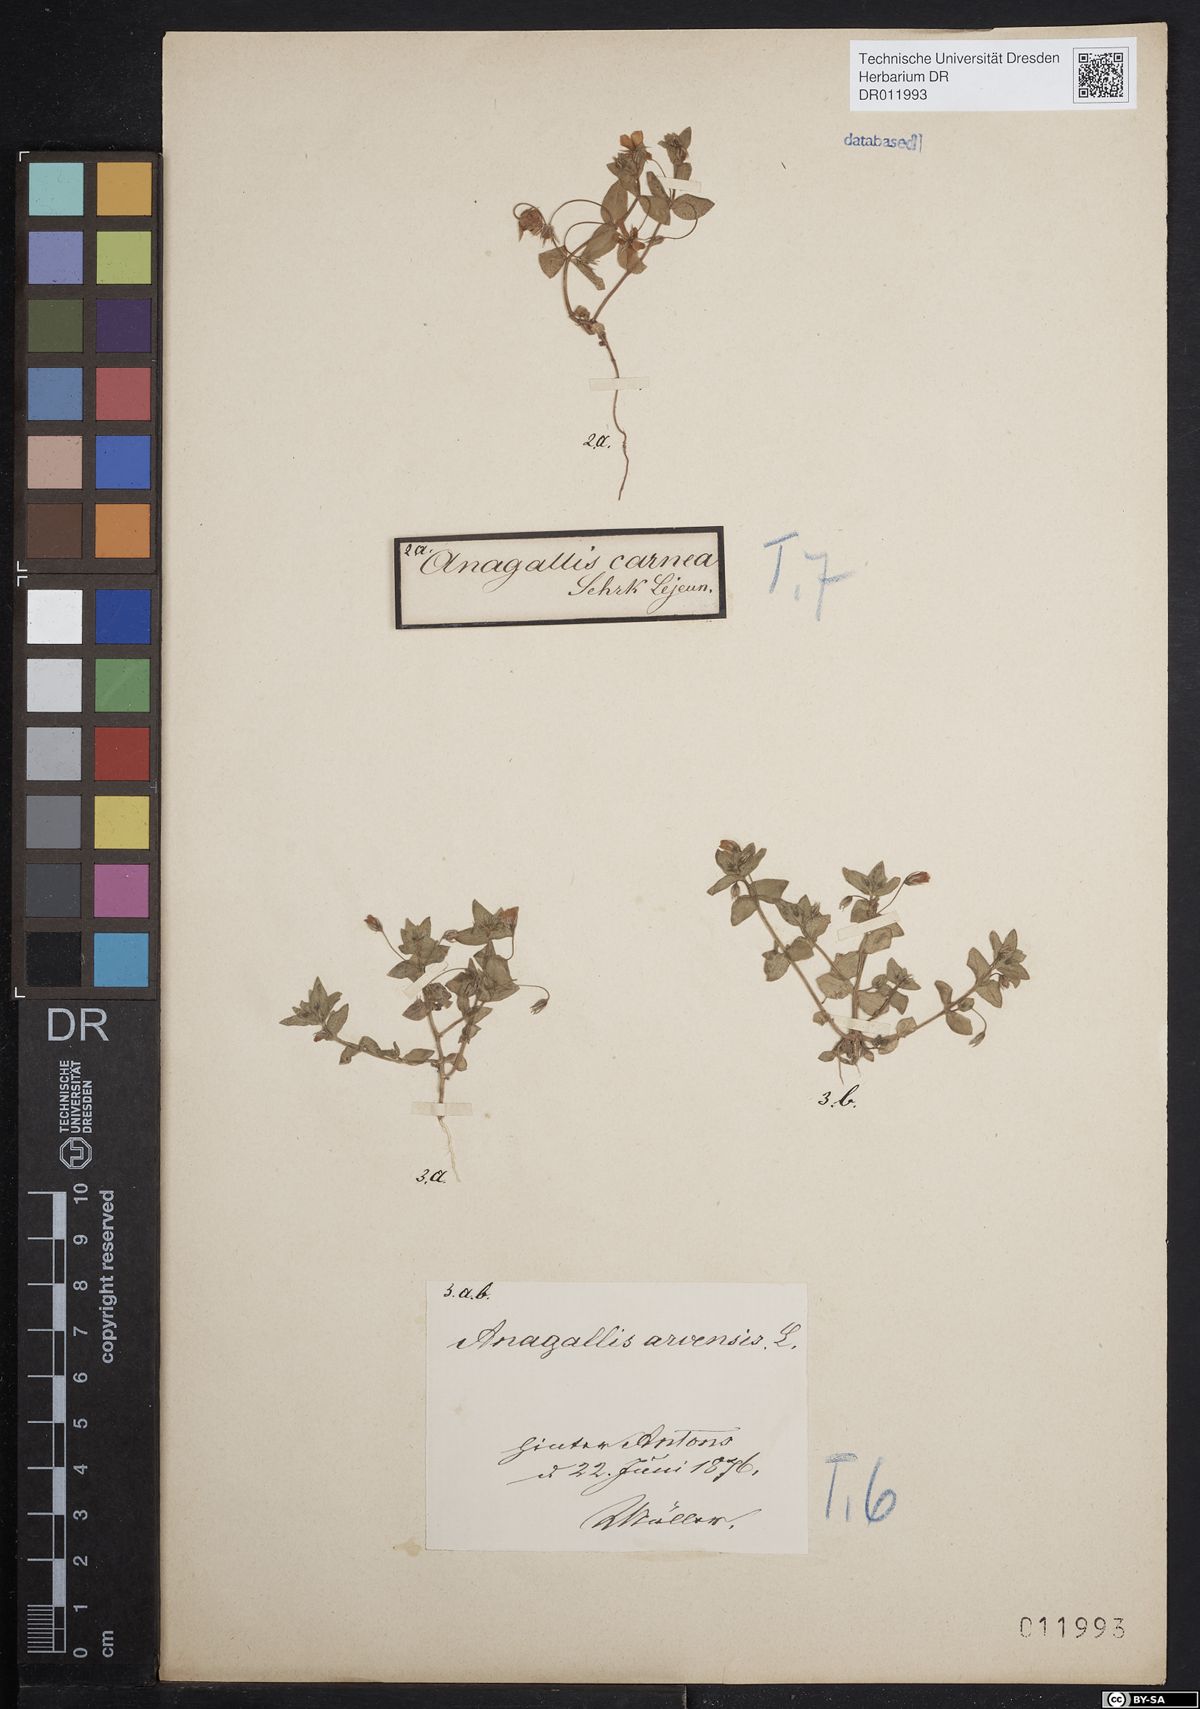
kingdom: Plantae
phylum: Tracheophyta
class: Magnoliopsida
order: Ericales
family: Primulaceae
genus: Lysimachia
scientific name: Lysimachia arvensis
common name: Scarlet pimpernel
